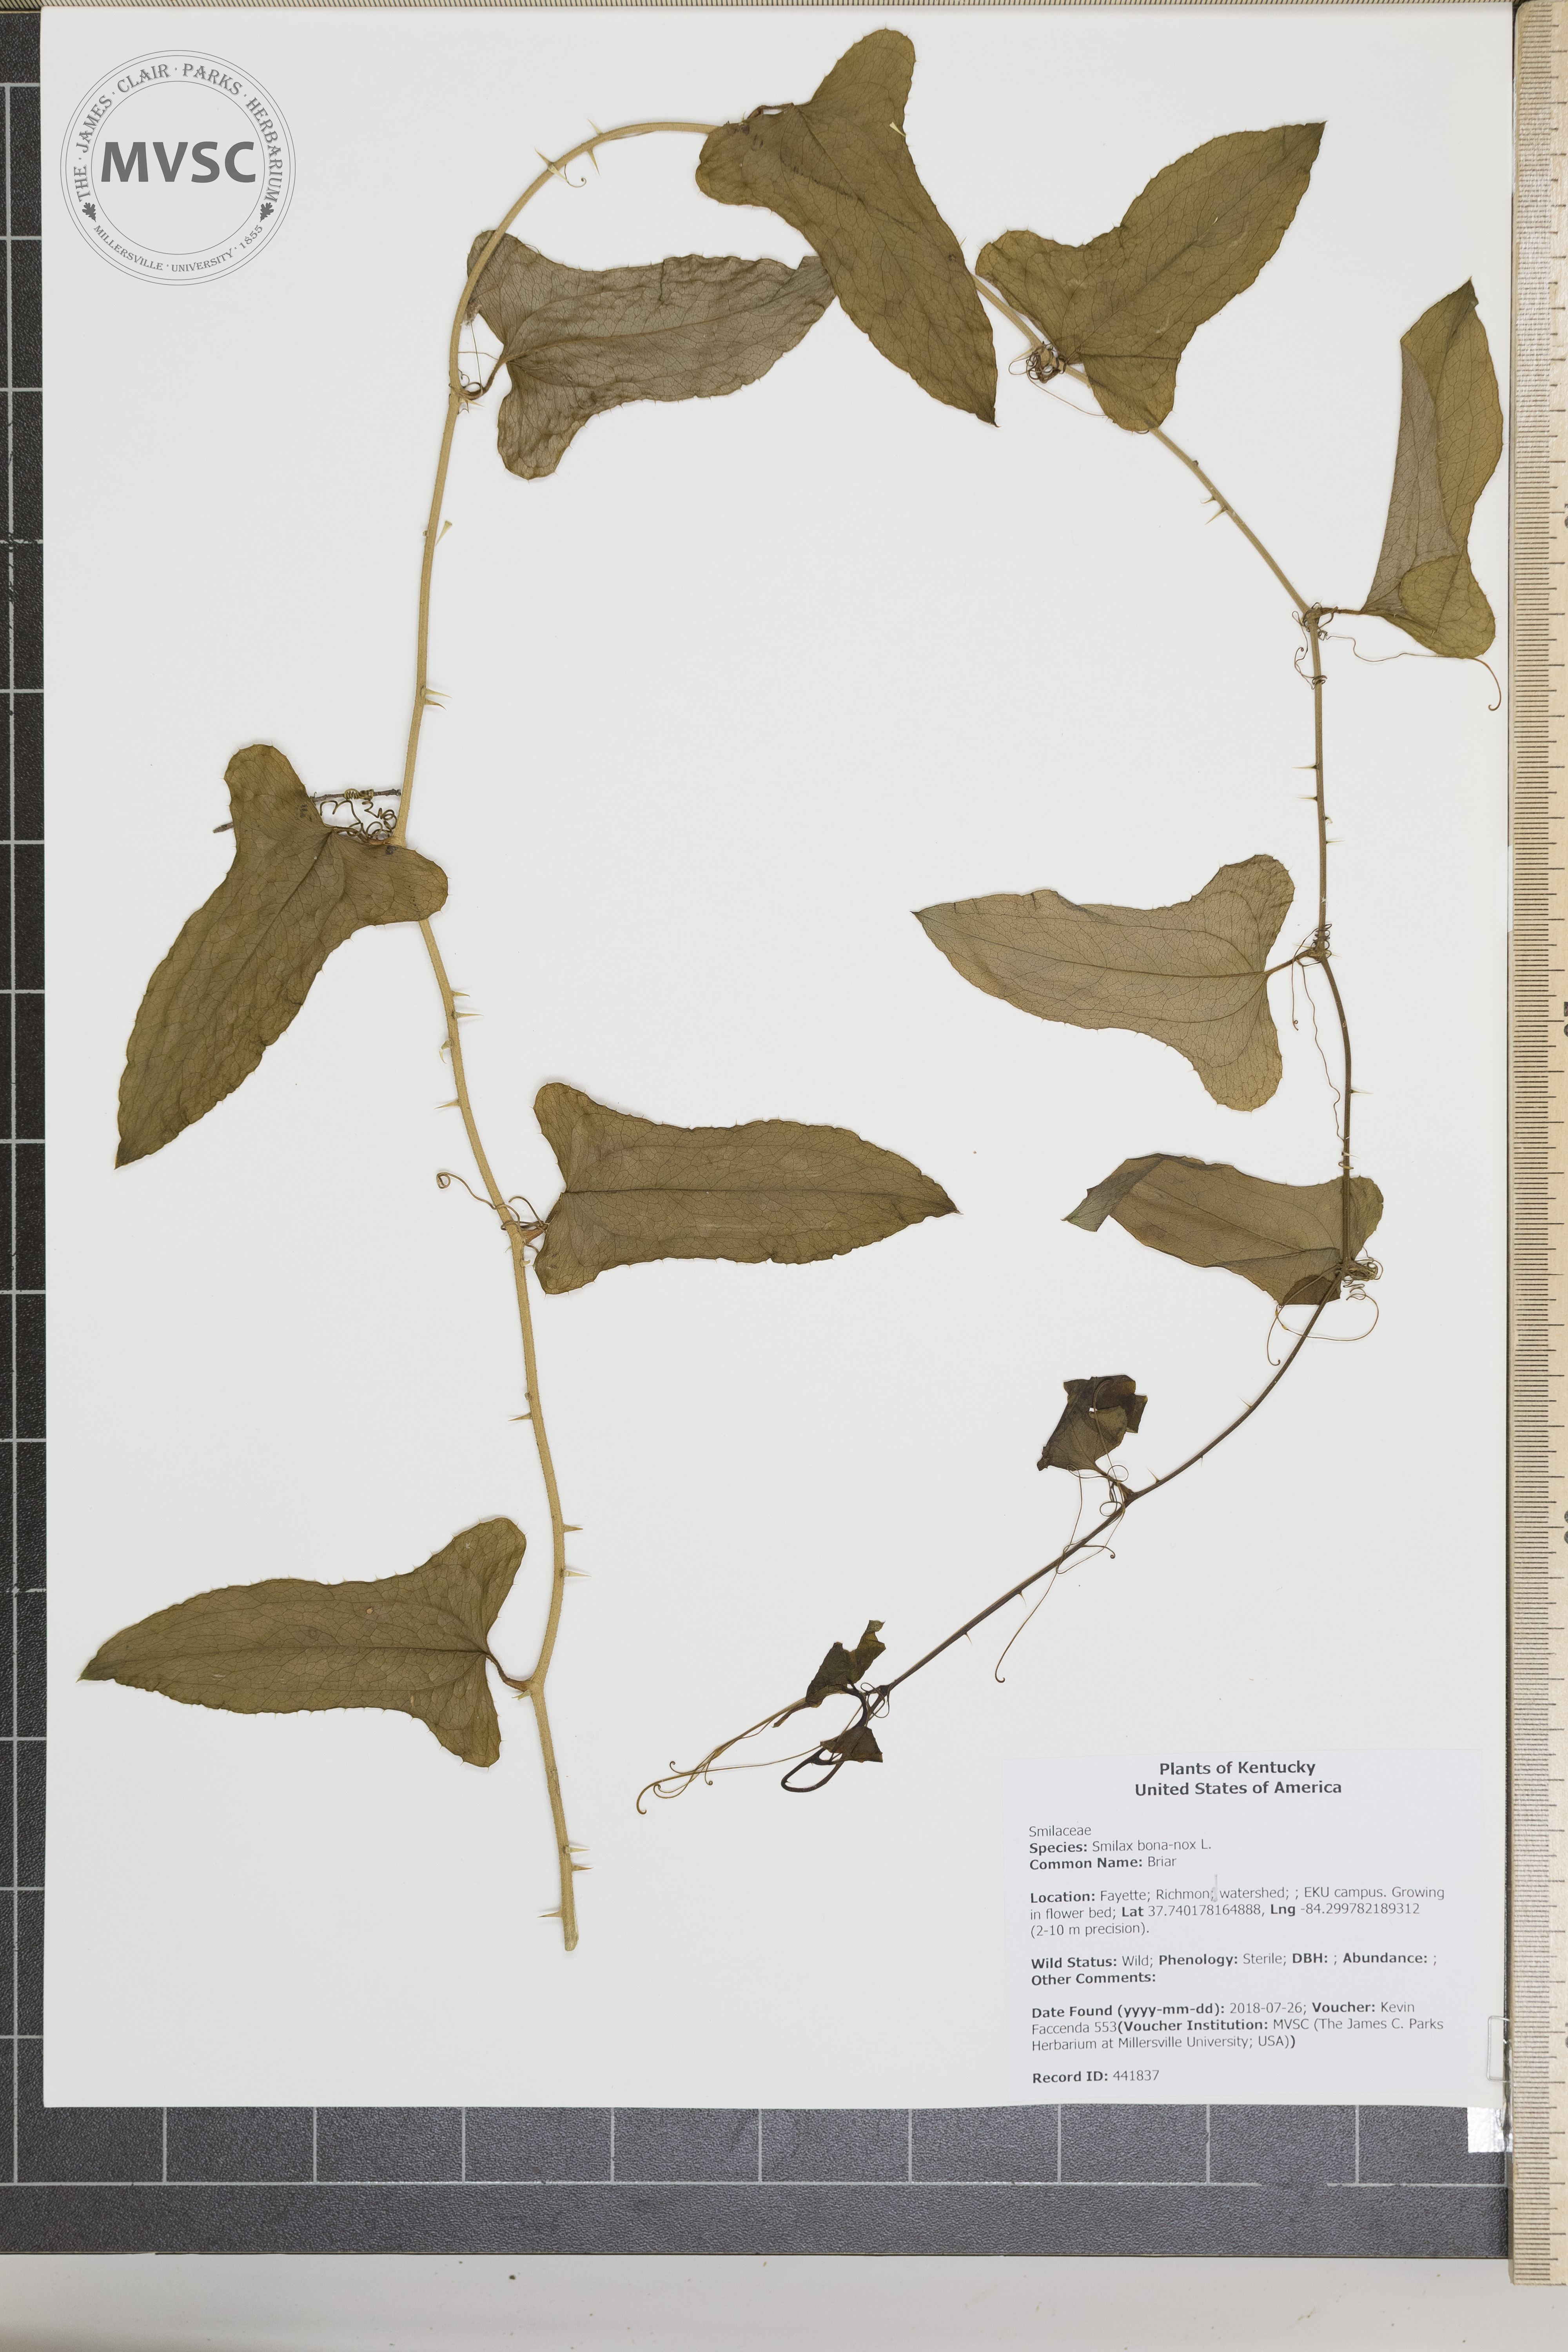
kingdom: Plantae
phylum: Tracheophyta
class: Liliopsida
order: Liliales
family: Smilacaceae
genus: Smilax
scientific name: Smilax bona-nox
